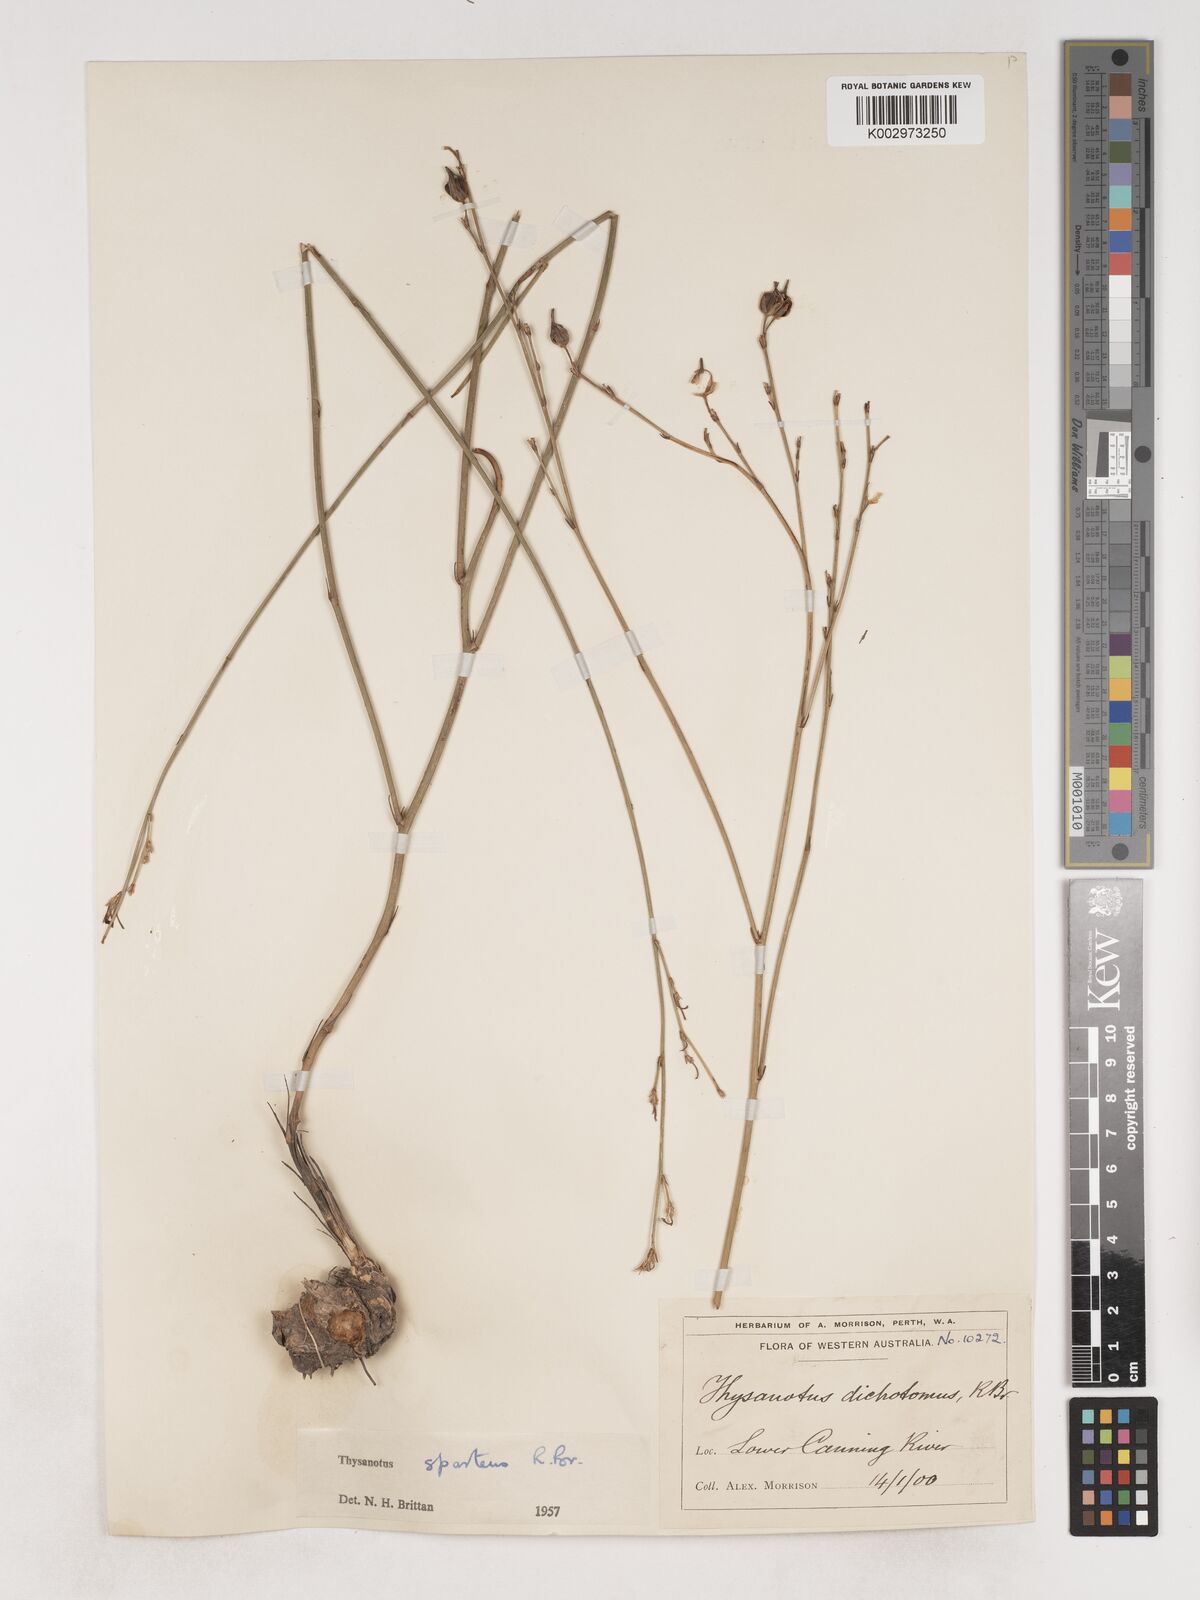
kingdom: Plantae
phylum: Tracheophyta
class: Liliopsida
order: Asparagales
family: Asparagaceae
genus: Thysanotus
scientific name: Thysanotus sparteus
